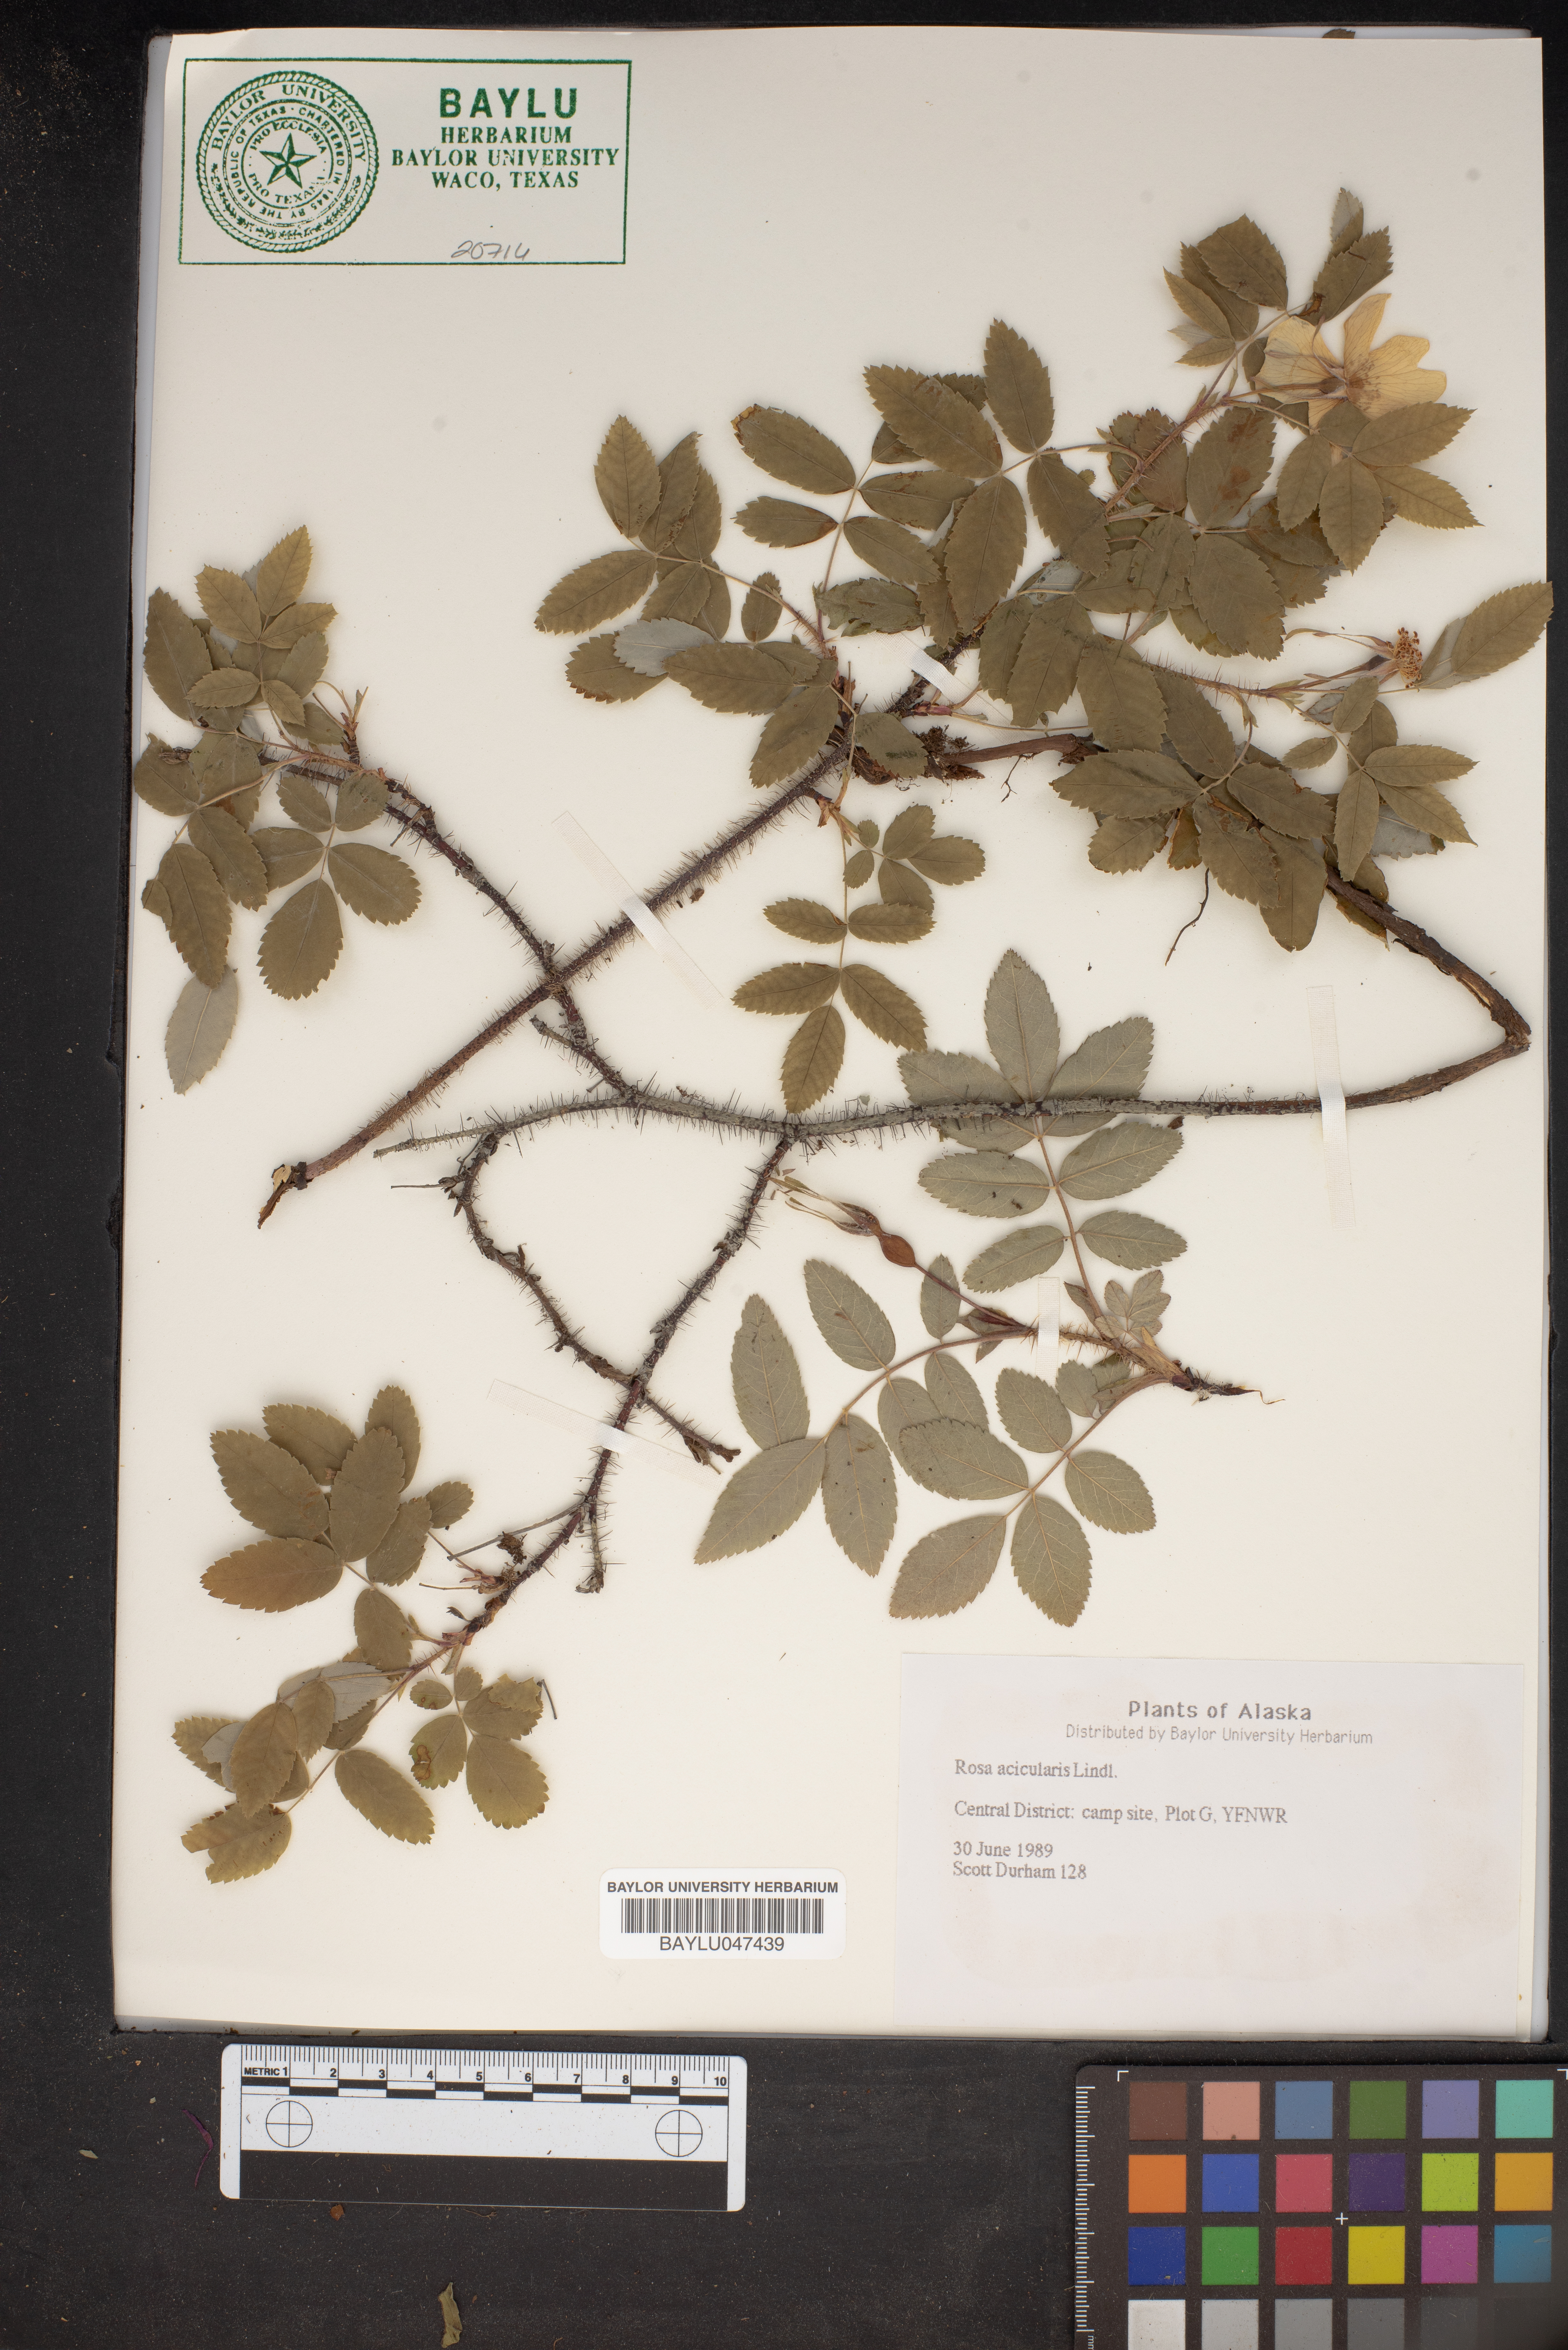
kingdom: Plantae
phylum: Tracheophyta
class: Magnoliopsida
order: Rosales
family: Rosaceae
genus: Rosa
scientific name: Rosa acicularis
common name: Prickly rose
